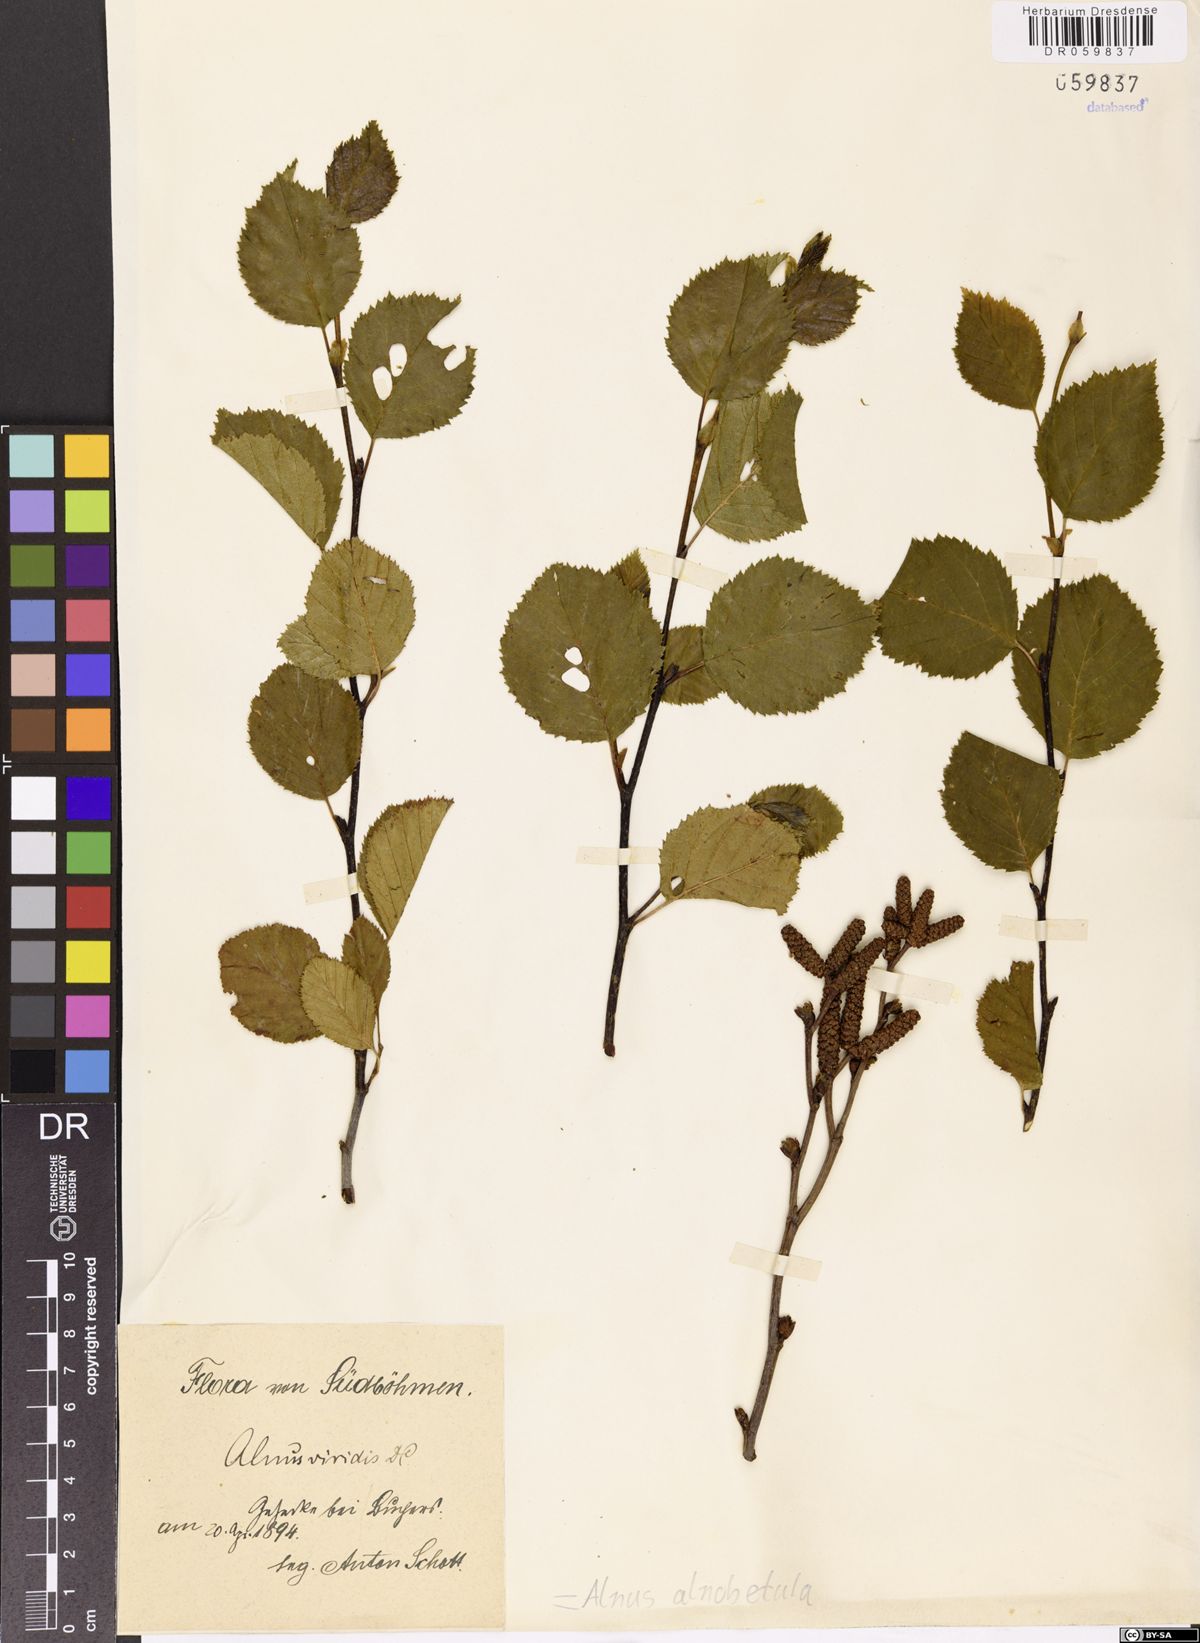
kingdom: Plantae
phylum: Tracheophyta
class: Magnoliopsida
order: Fagales
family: Betulaceae
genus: Alnus
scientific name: Alnus alnobetula
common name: Green alder
